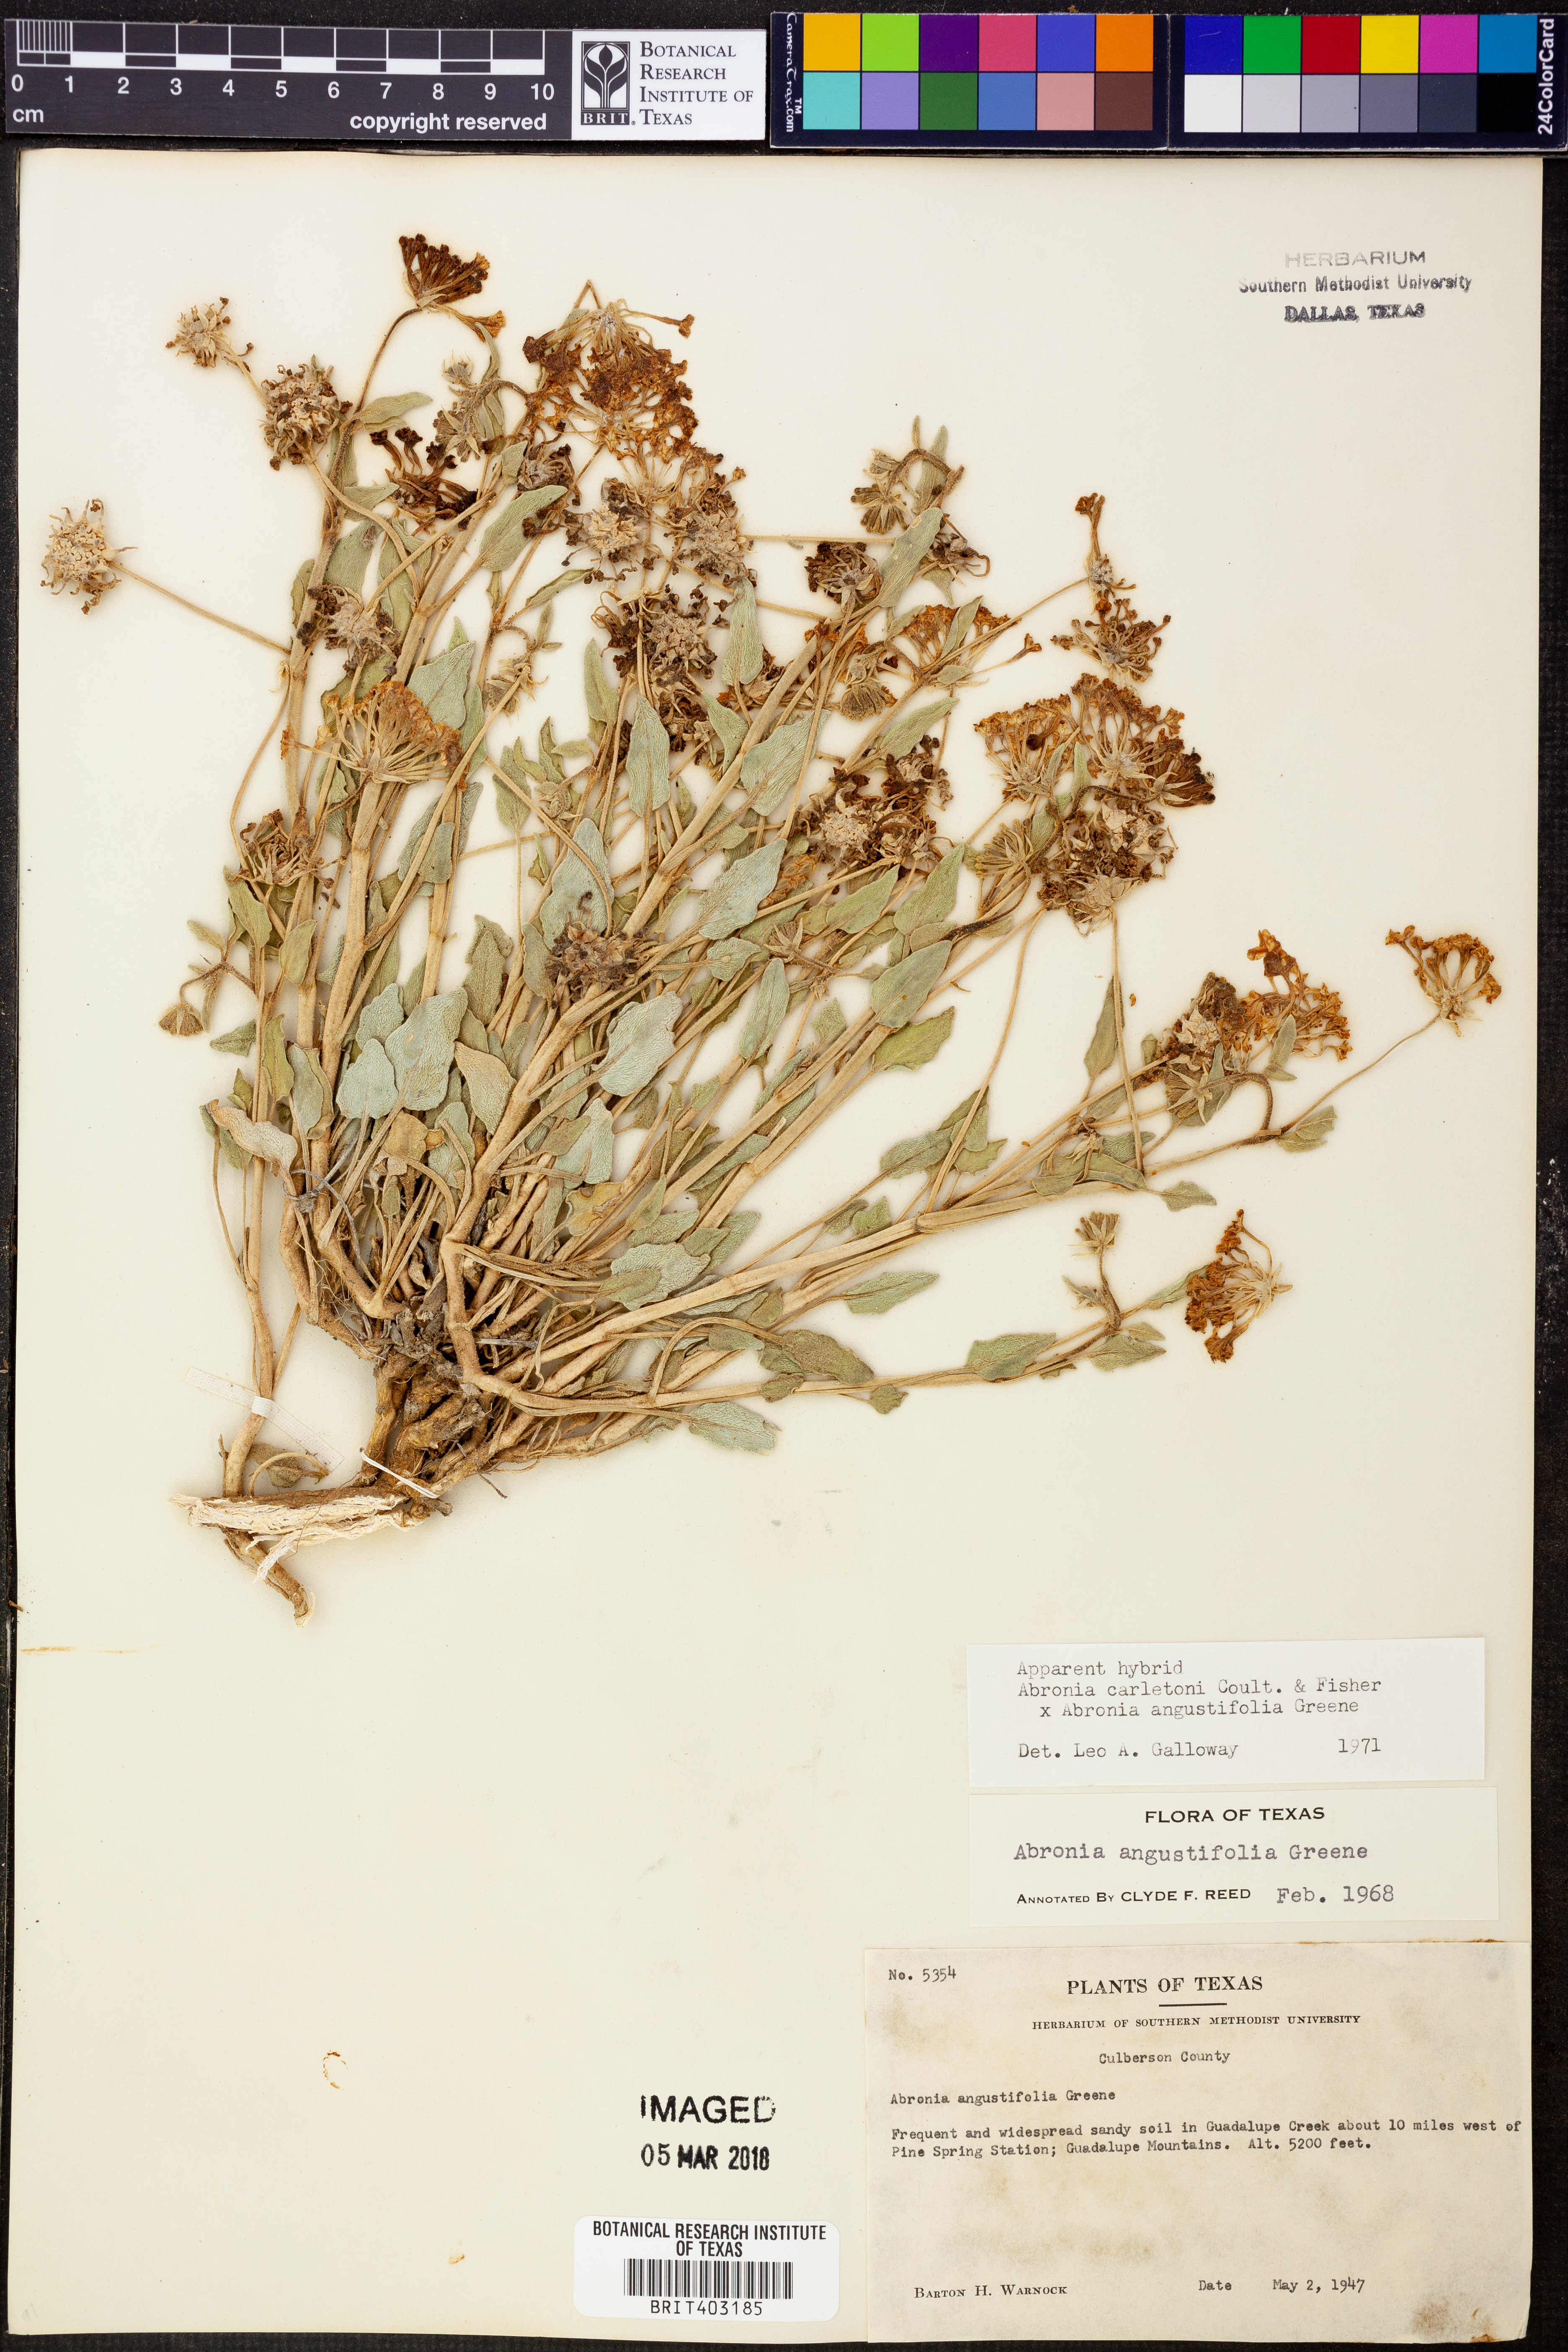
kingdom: Plantae
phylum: Tracheophyta
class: Magnoliopsida
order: Caryophyllales
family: Nyctaginaceae
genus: Abronia
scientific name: Abronia angustifolia
